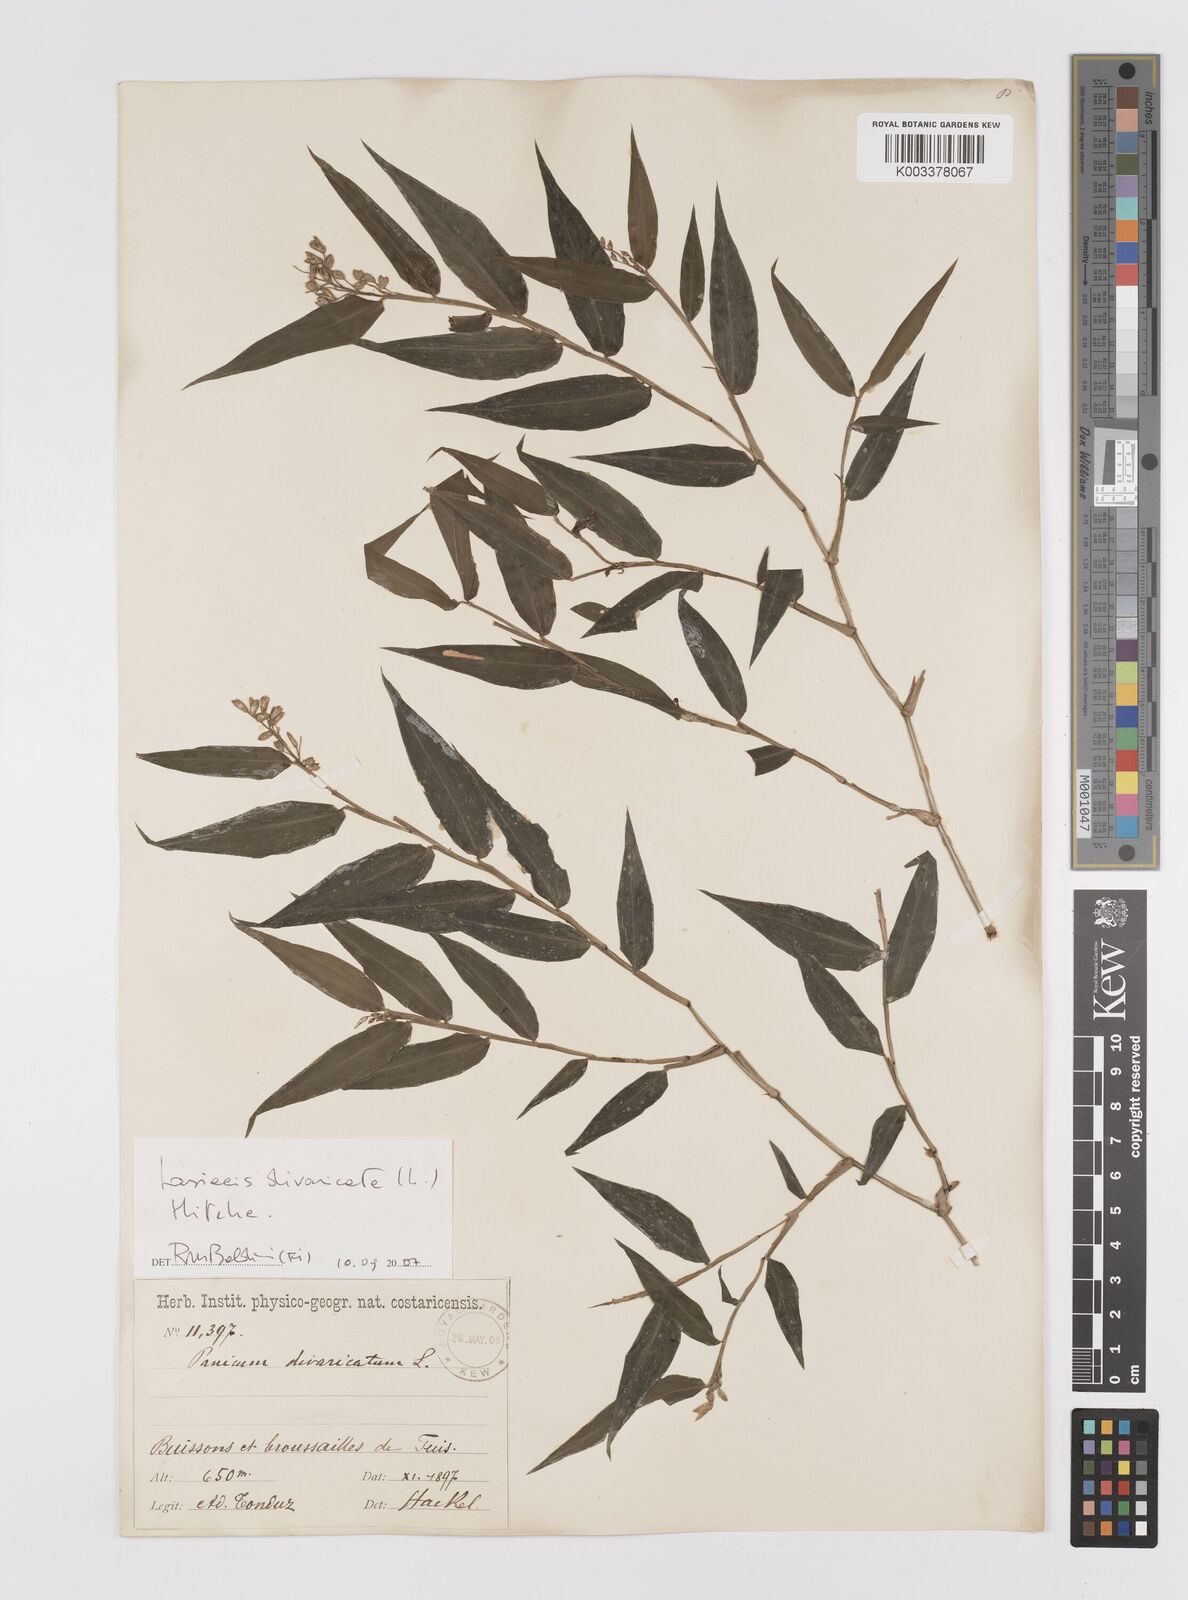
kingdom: Plantae
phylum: Tracheophyta
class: Liliopsida
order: Poales
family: Poaceae
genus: Lasiacis
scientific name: Lasiacis divaricata
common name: Smallcane
